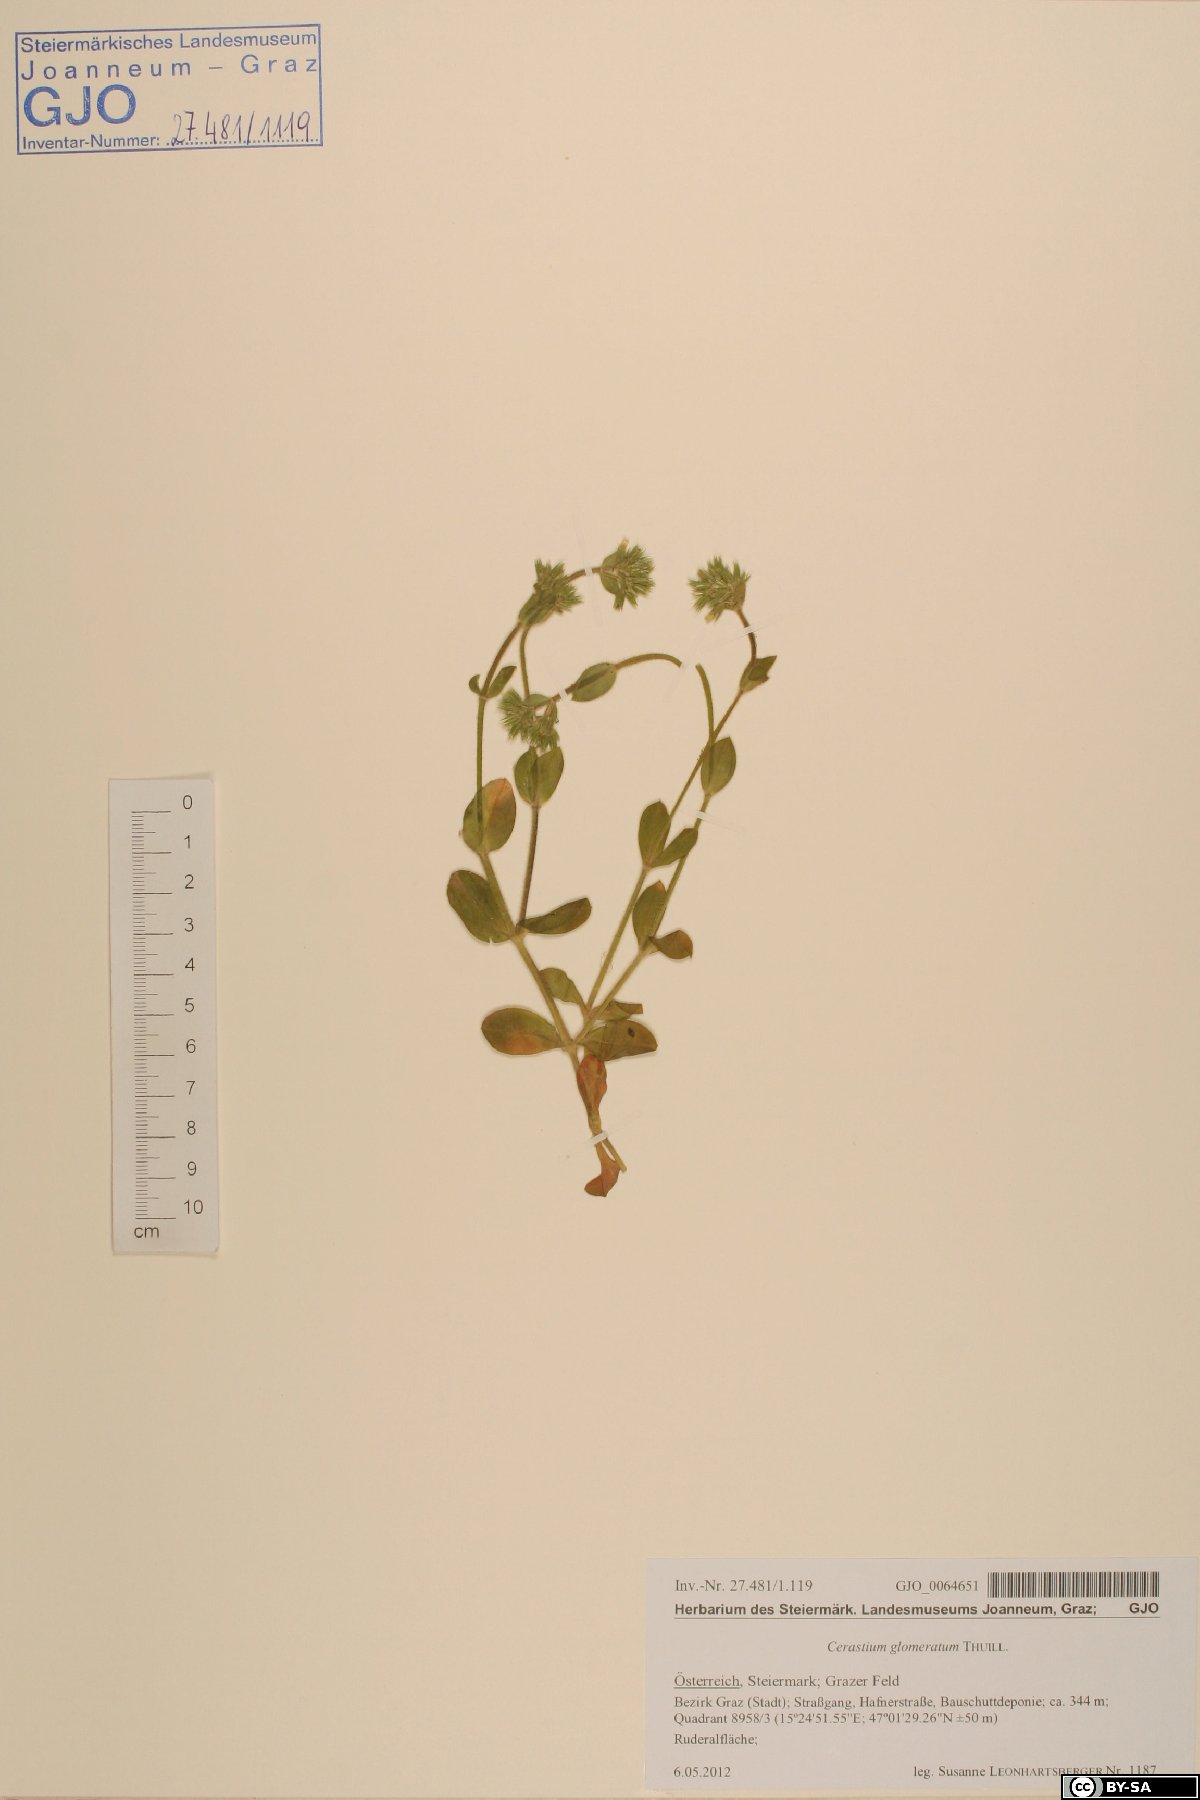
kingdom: Plantae
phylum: Tracheophyta
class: Magnoliopsida
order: Caryophyllales
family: Caryophyllaceae
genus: Cerastium
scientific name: Cerastium glomeratum
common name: Sticky chickweed
